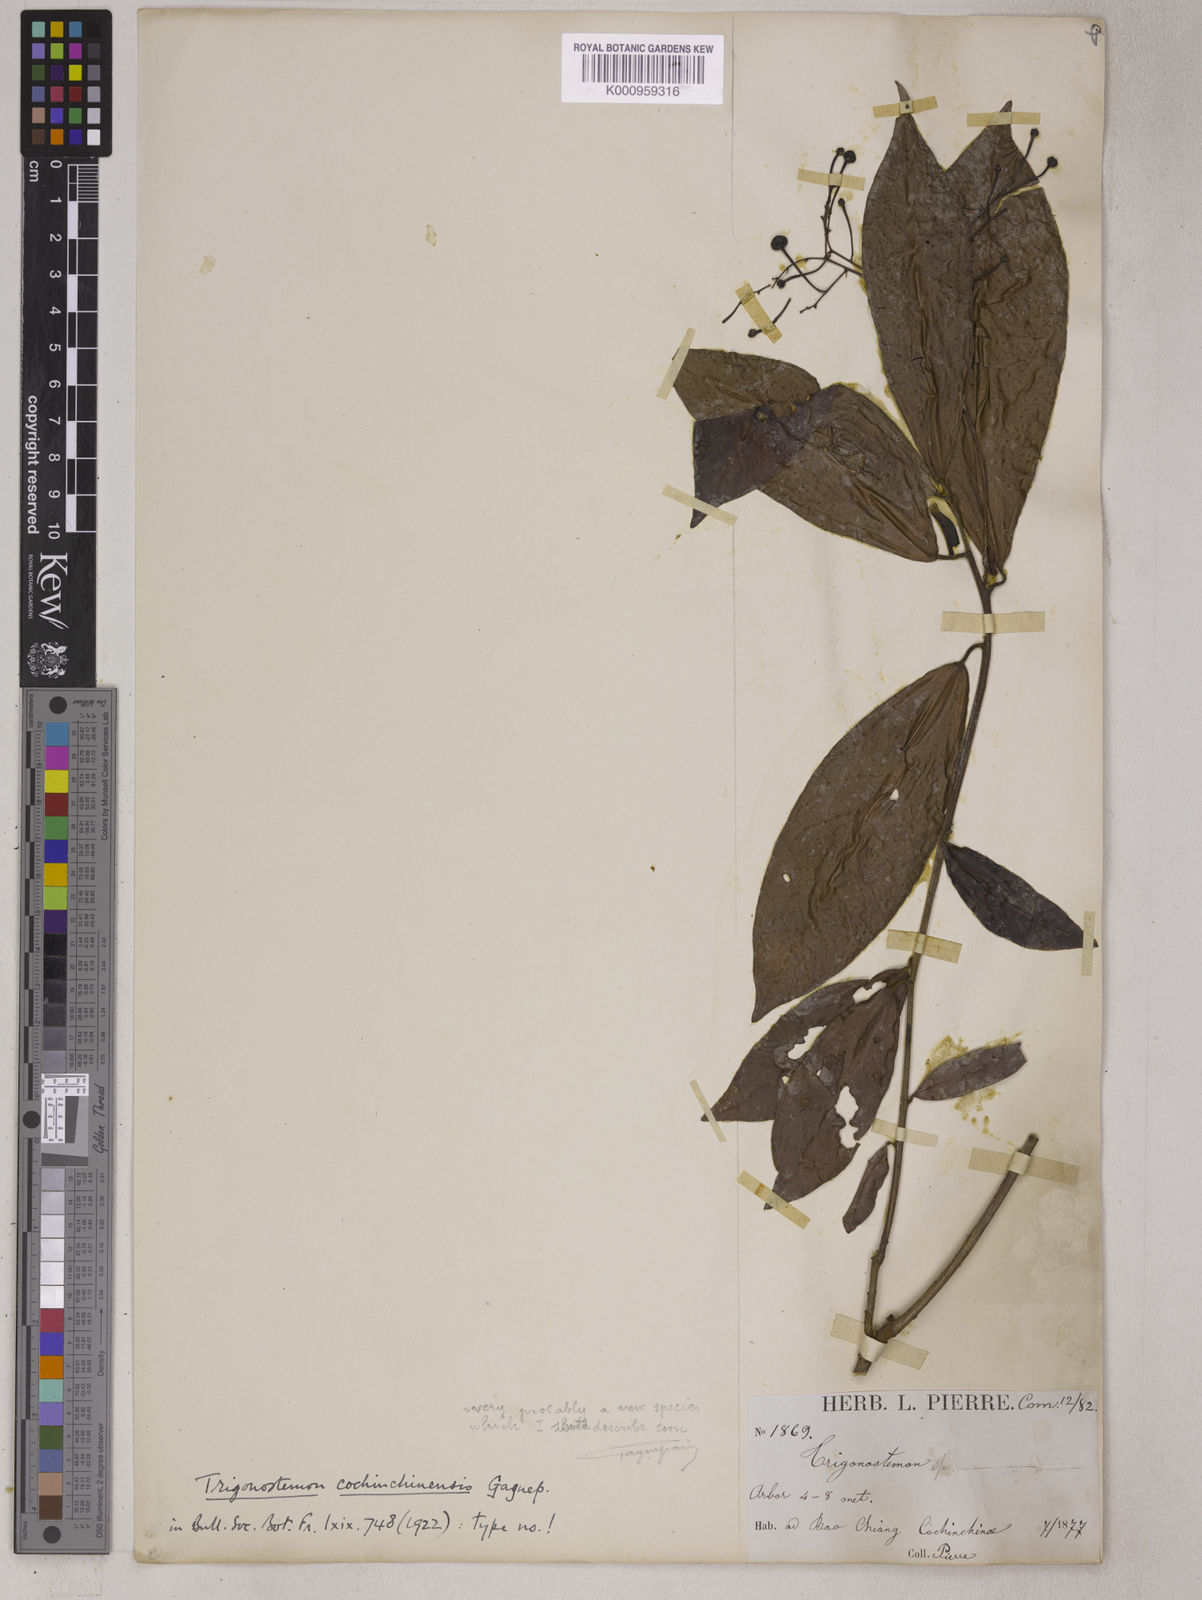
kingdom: Plantae
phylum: Tracheophyta
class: Magnoliopsida
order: Malpighiales
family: Euphorbiaceae
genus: Trigonostemon
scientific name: Trigonostemon capitellatus
